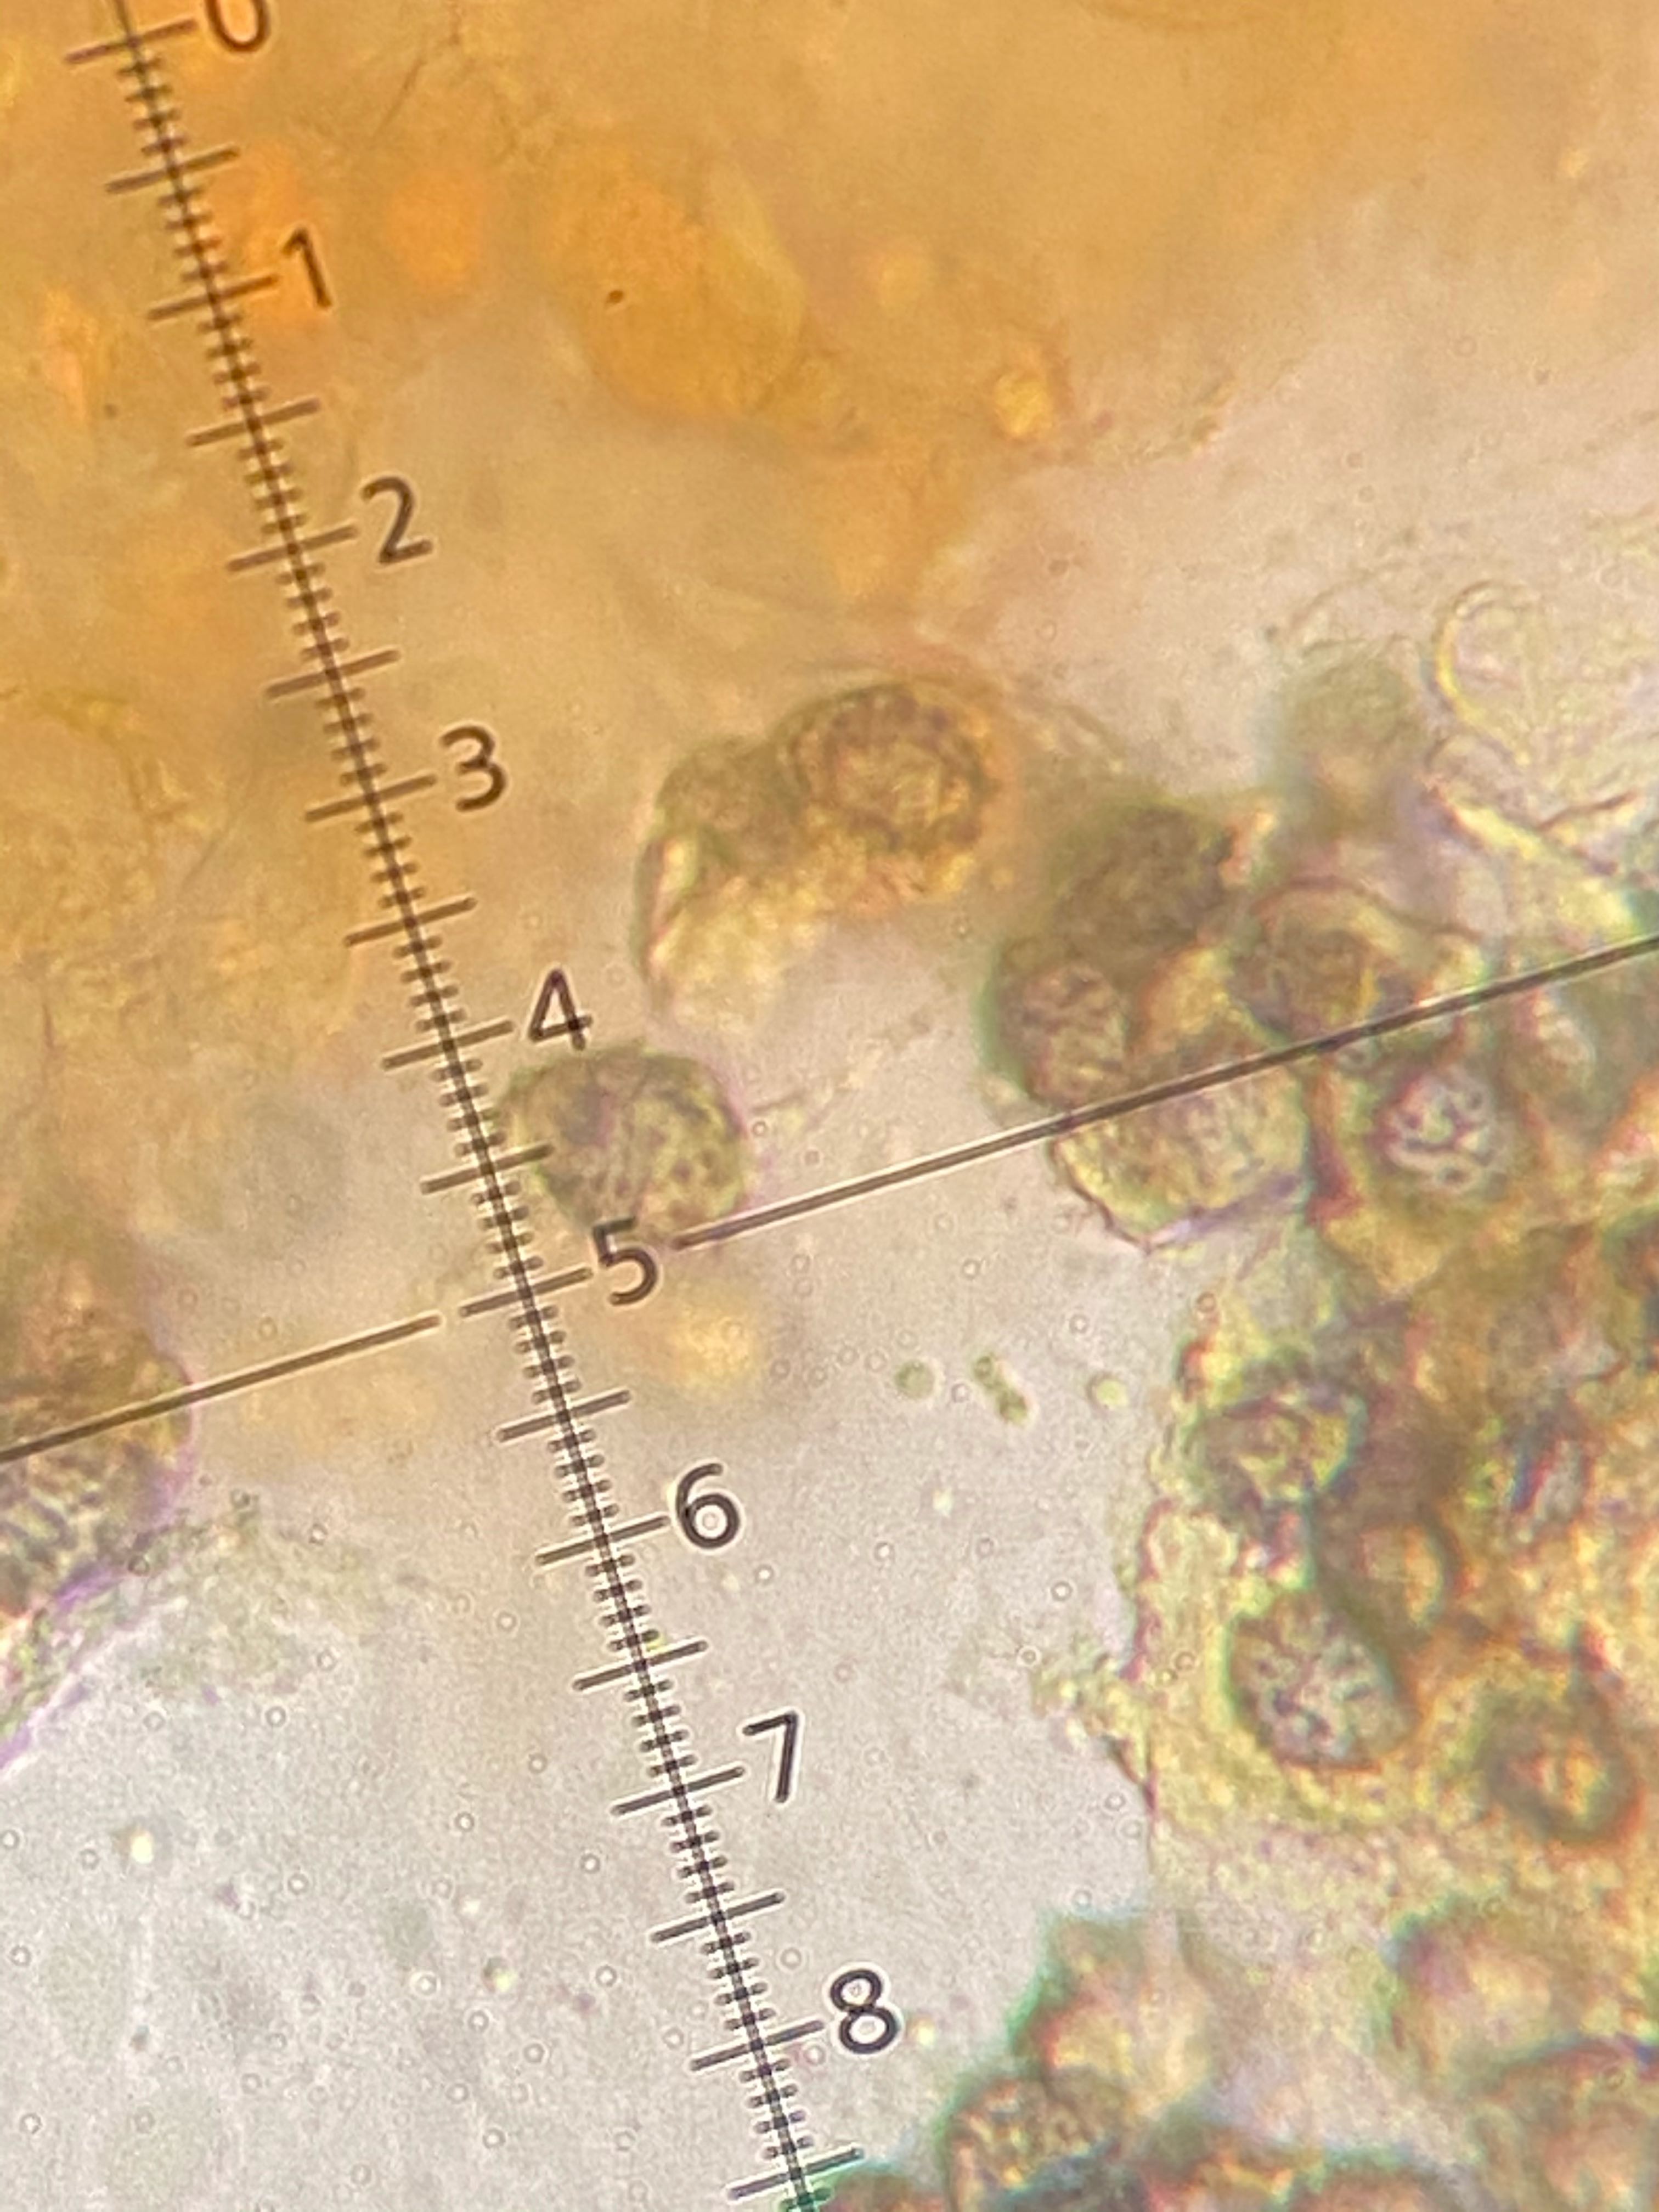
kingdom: Fungi
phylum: Basidiomycota
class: Agaricomycetes
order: Russulales
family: Russulaceae
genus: Russula
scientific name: Russula depallens
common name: falmende skørhat
